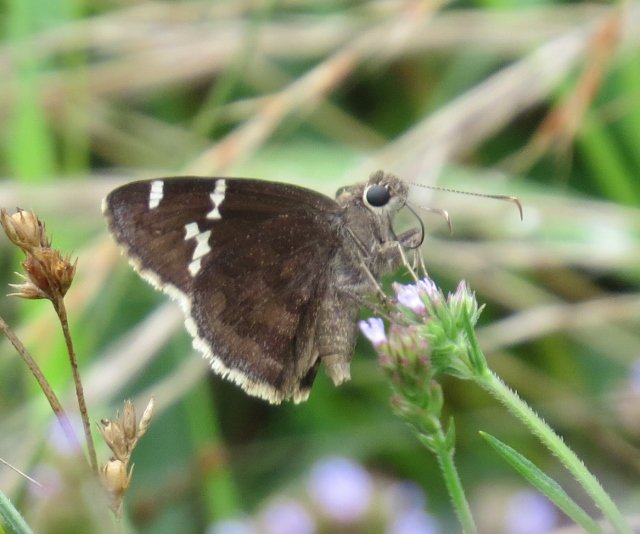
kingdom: Animalia
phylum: Arthropoda
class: Insecta
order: Lepidoptera
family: Hesperiidae
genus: Autochton
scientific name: Autochton
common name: Southern Cloudywing
